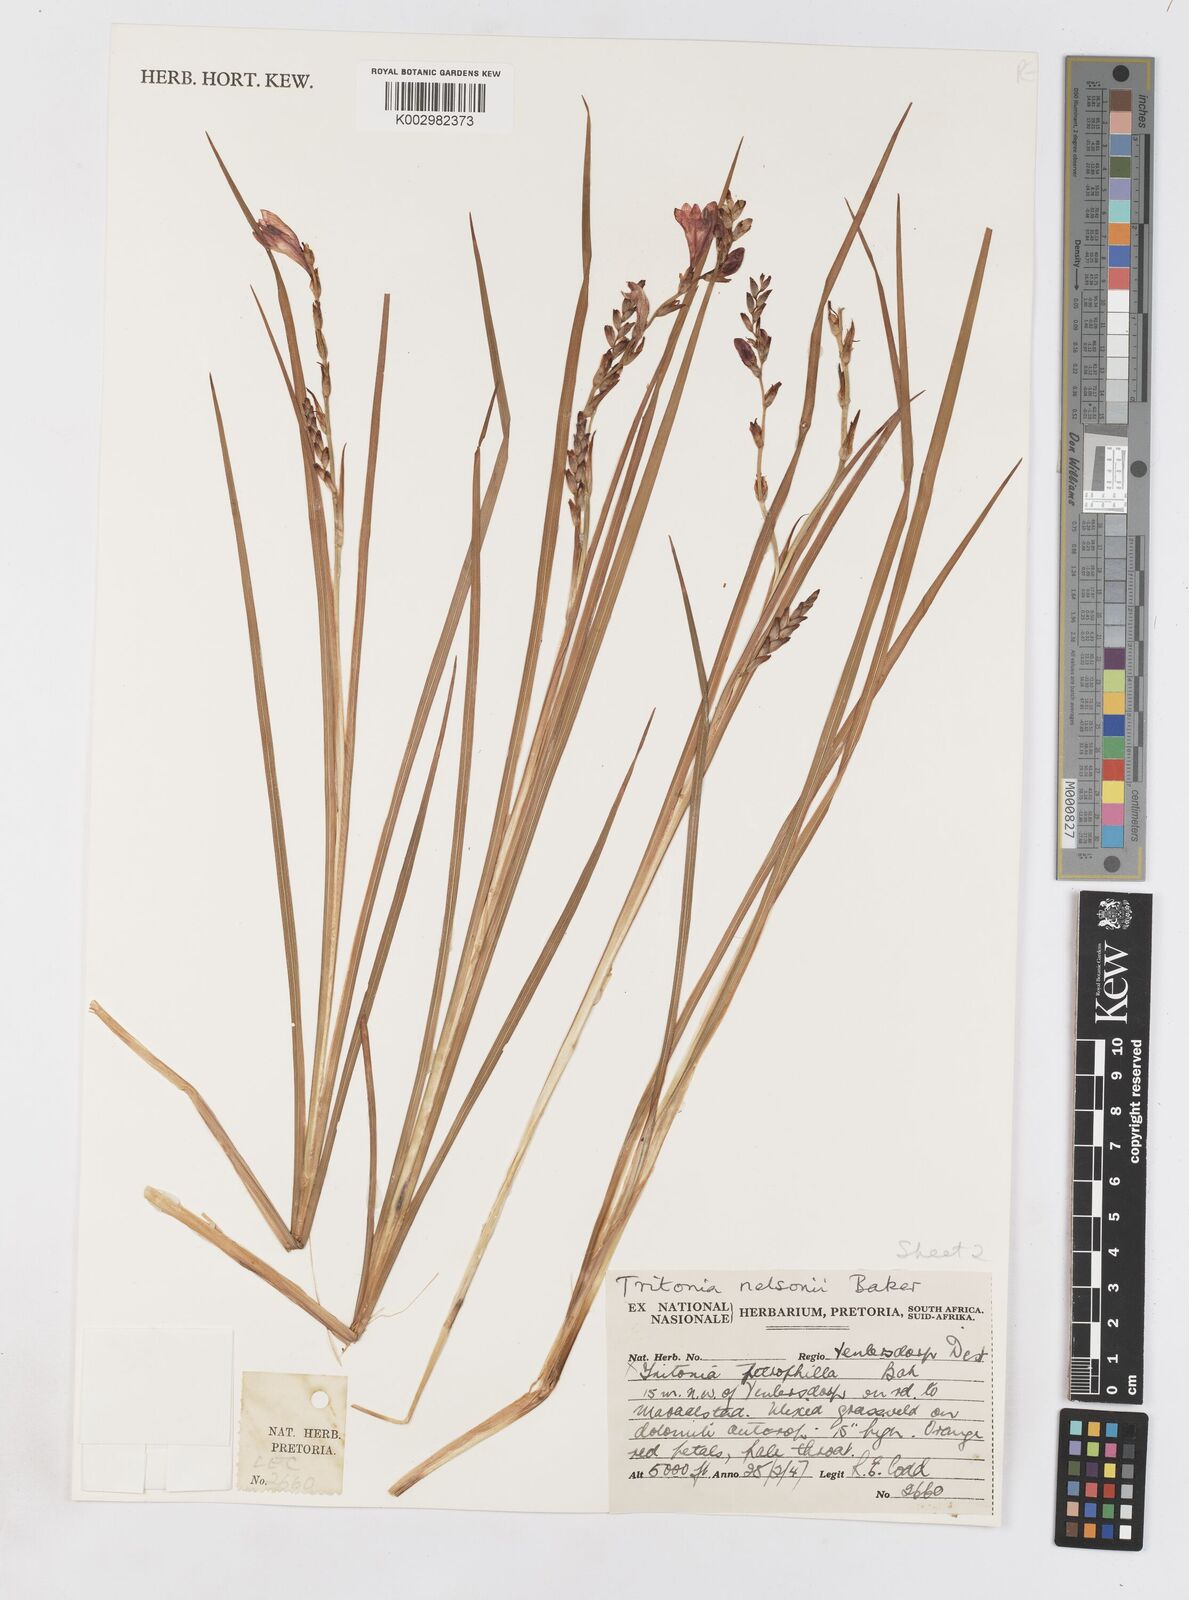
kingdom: Plantae
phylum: Tracheophyta
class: Liliopsida
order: Asparagales
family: Iridaceae
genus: Tritonia
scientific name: Tritonia nelsonii
